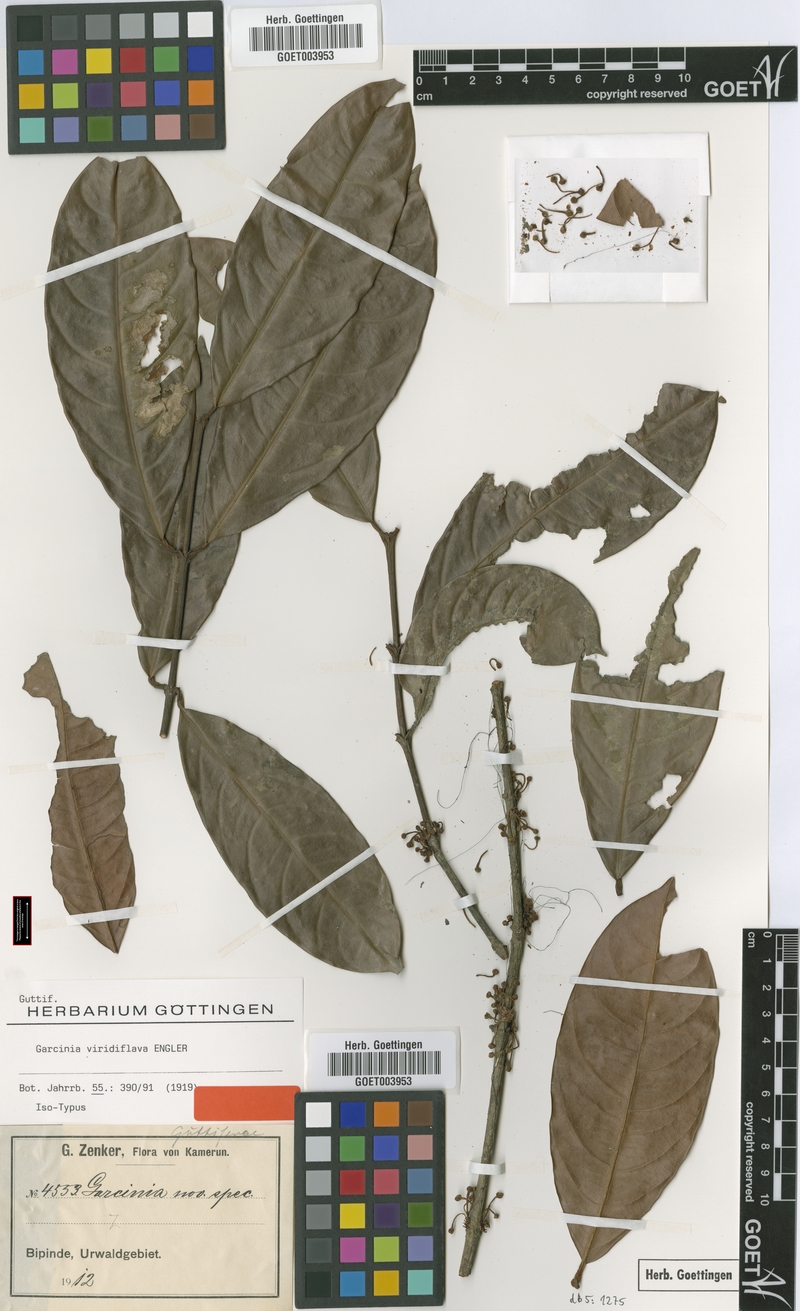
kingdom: Plantae
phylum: Tracheophyta
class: Magnoliopsida
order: Malpighiales
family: Clusiaceae
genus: Garcinia
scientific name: Garcinia smeathmannii
